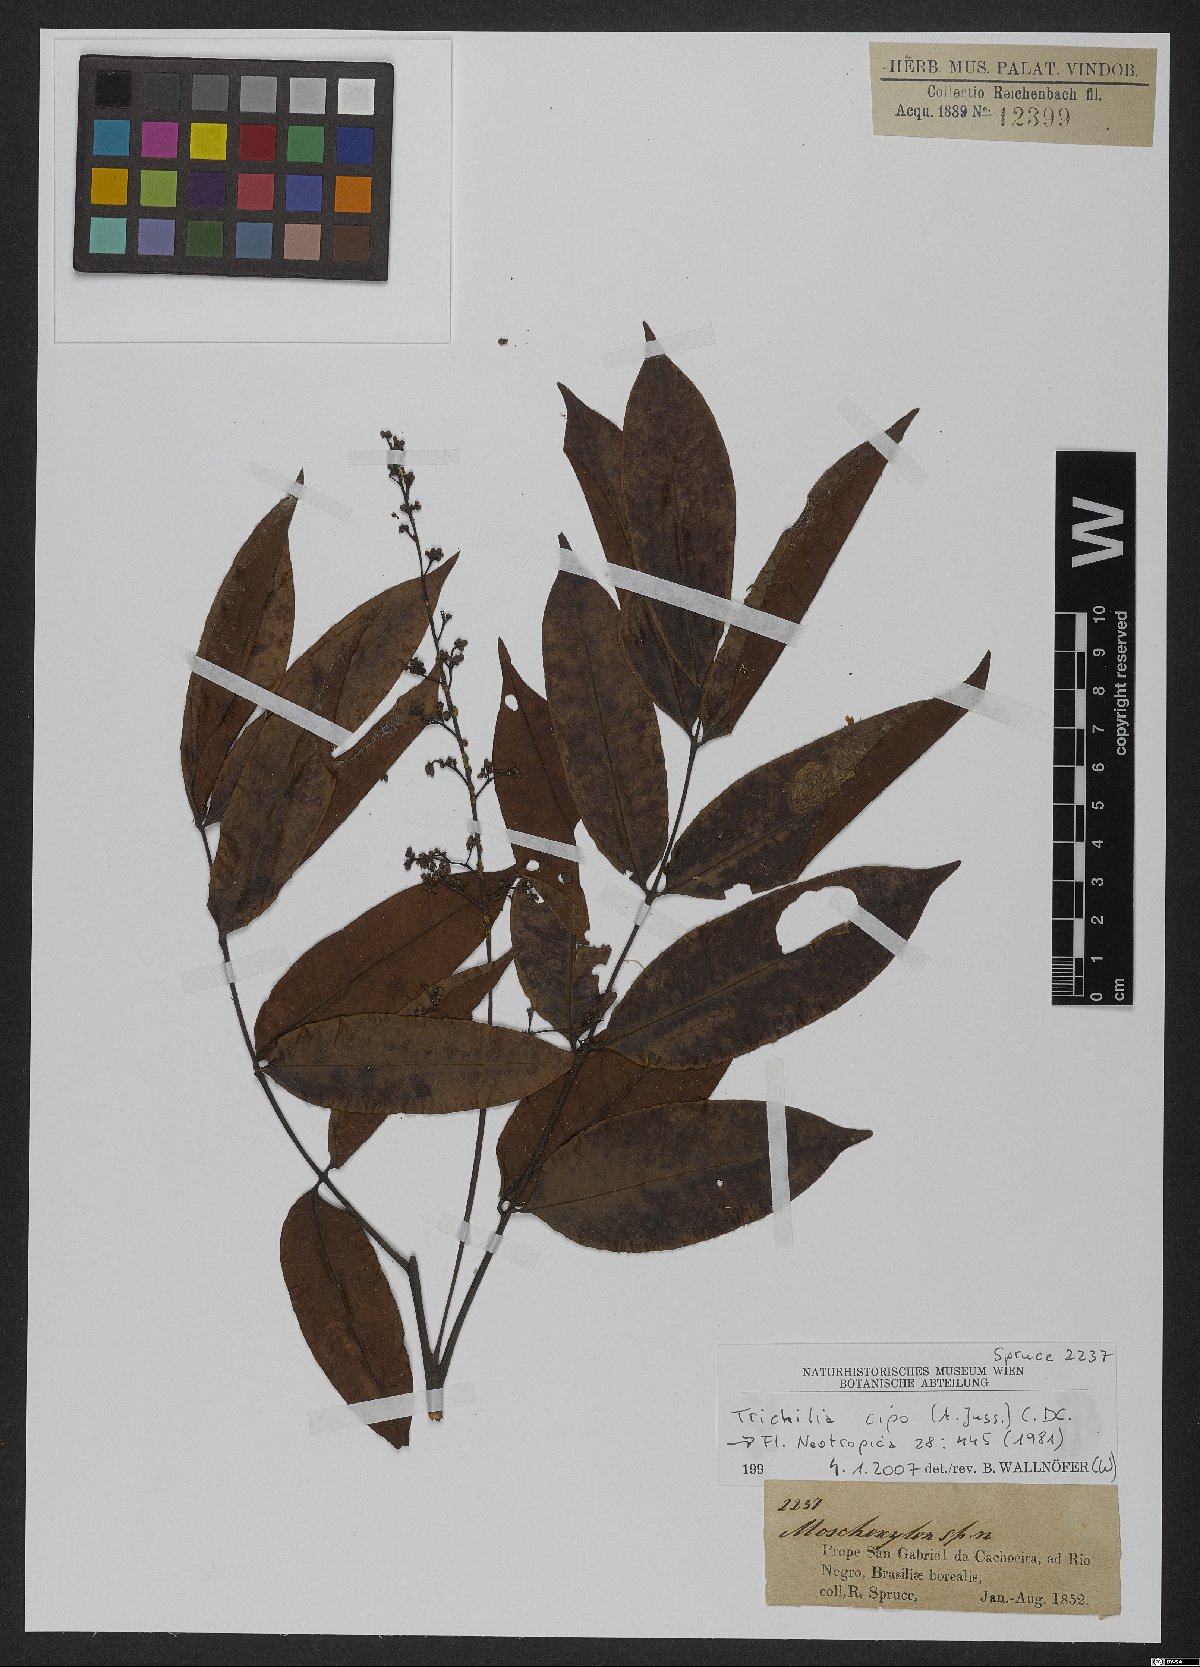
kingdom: Plantae
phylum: Tracheophyta
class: Magnoliopsida
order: Sapindales
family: Meliaceae
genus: Trichilia
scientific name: Trichilia cipo
